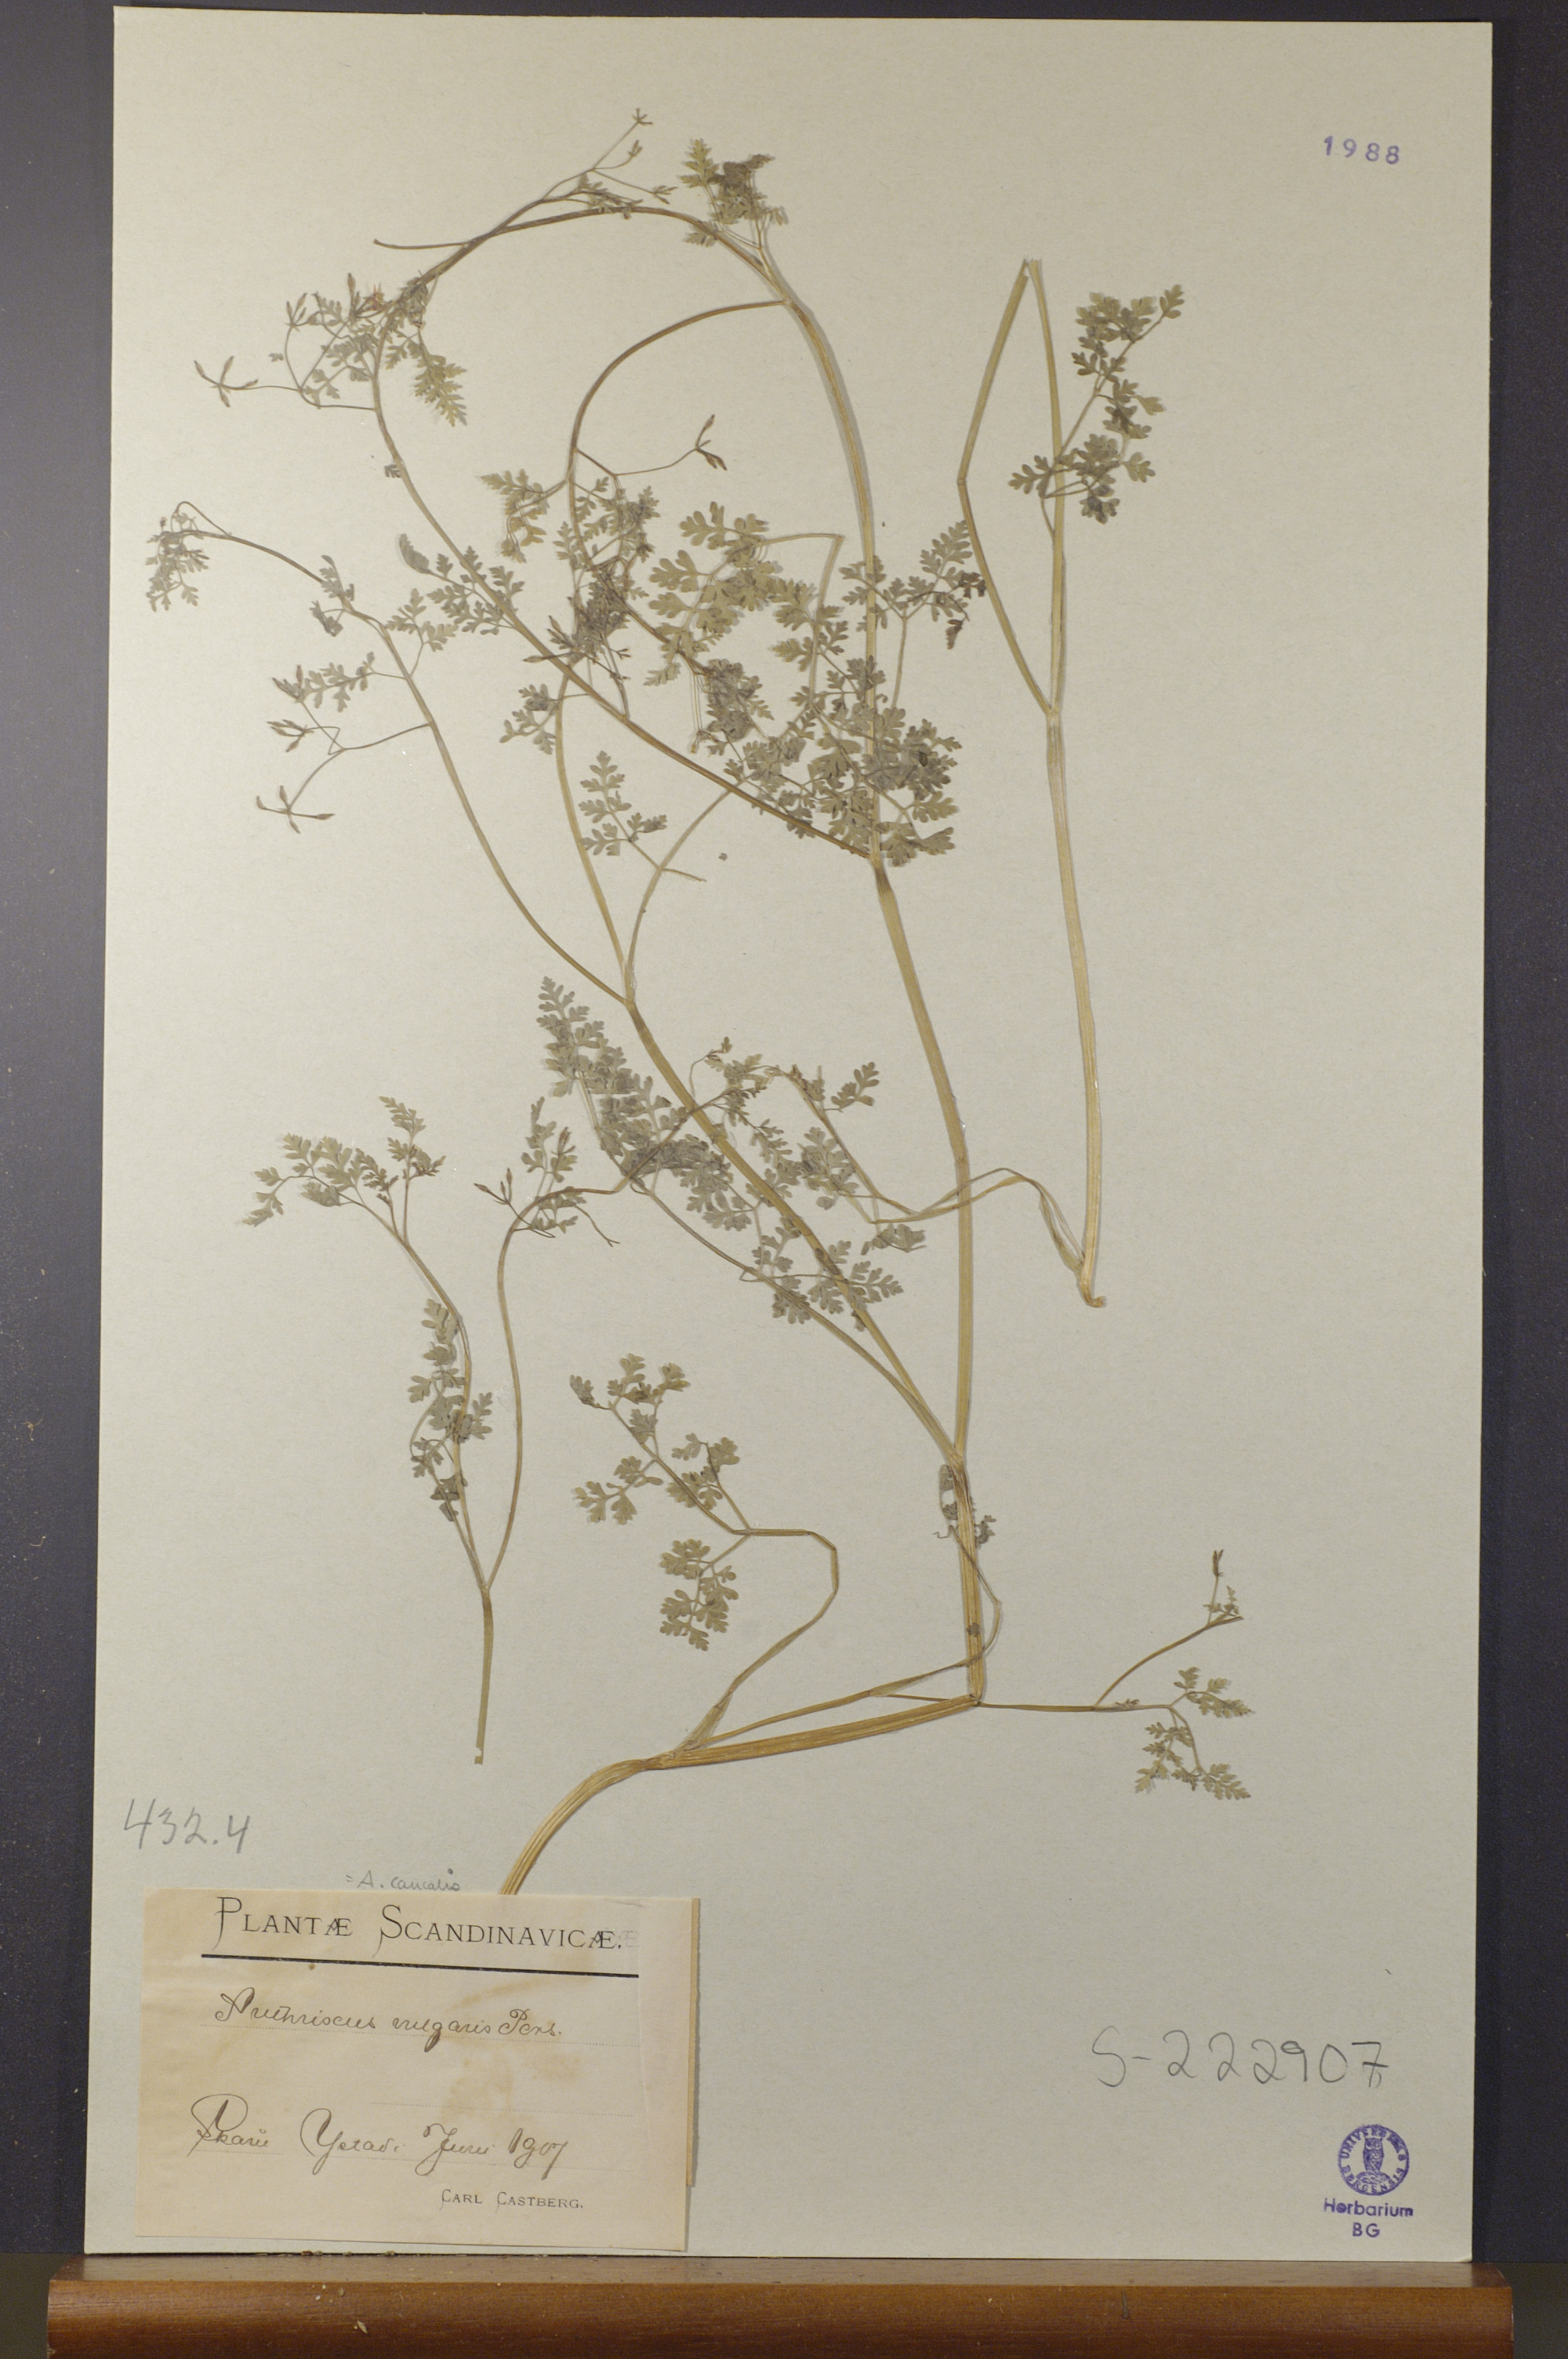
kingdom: Plantae
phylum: Tracheophyta
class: Magnoliopsida
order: Apiales
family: Apiaceae
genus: Anthriscus
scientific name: Anthriscus caucalis
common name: Bur chervil
